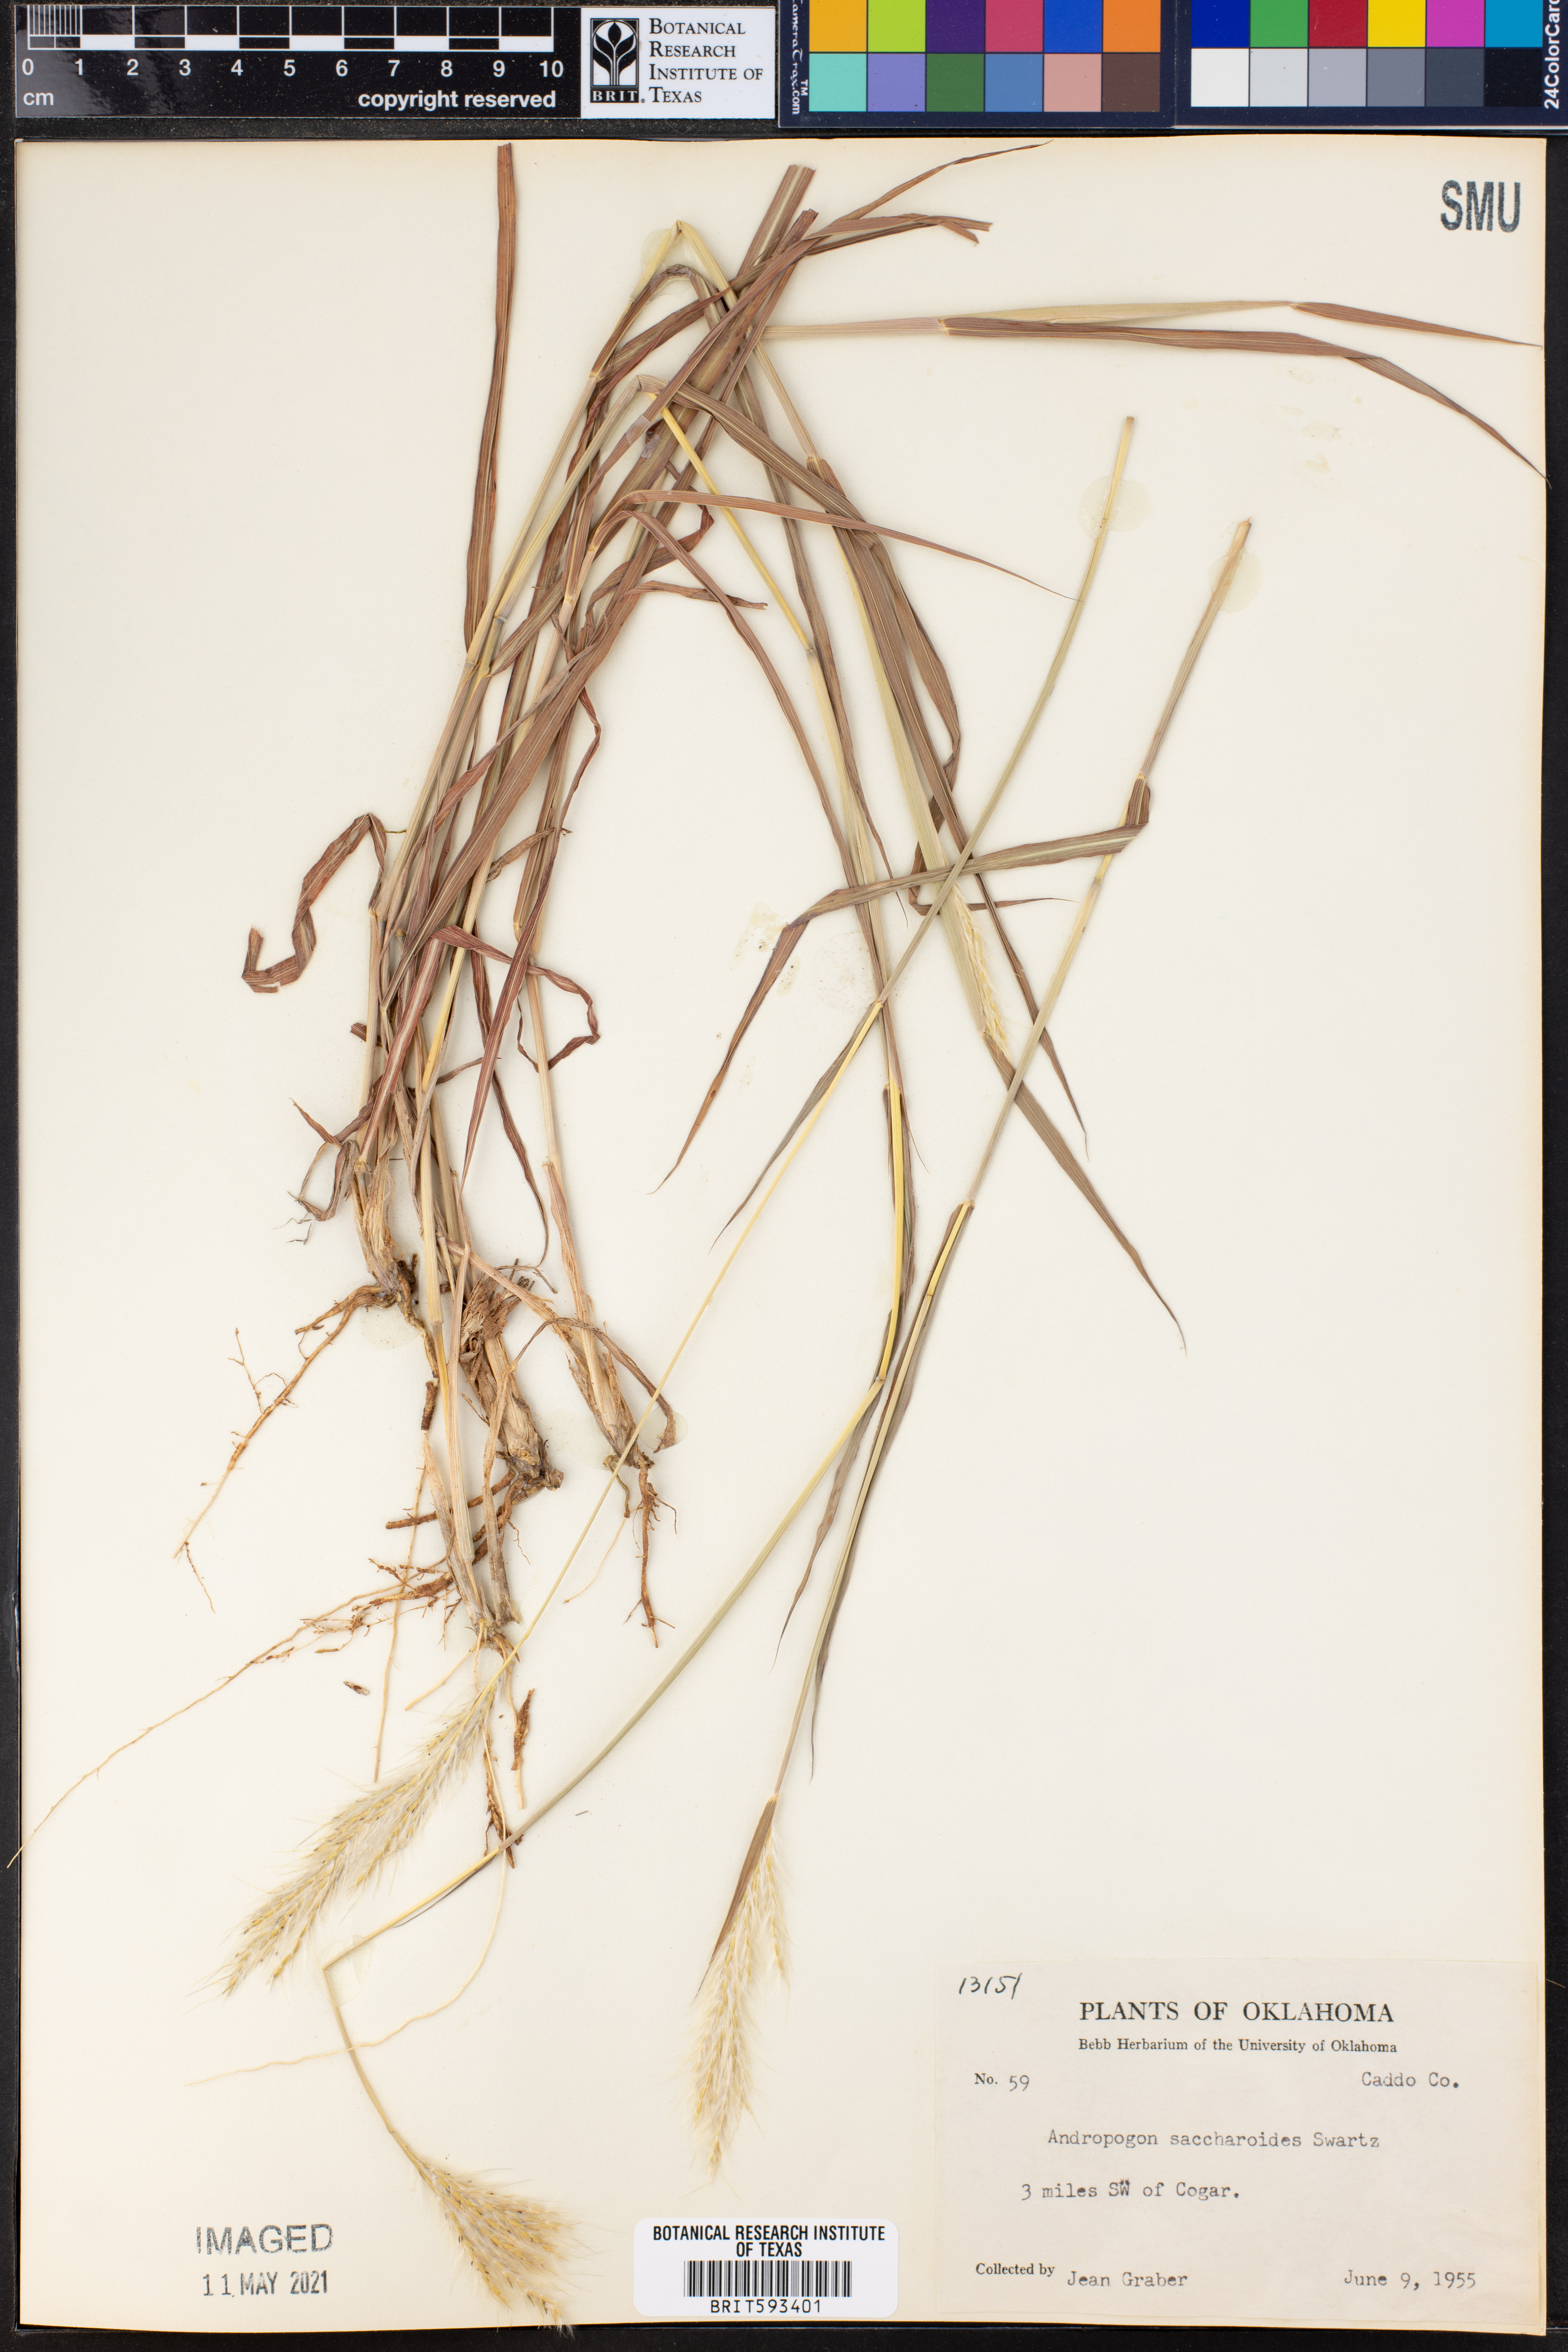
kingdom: Plantae
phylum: Tracheophyta
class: Liliopsida
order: Poales
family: Poaceae
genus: Bothriochloa
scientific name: Bothriochloa saccharoides
